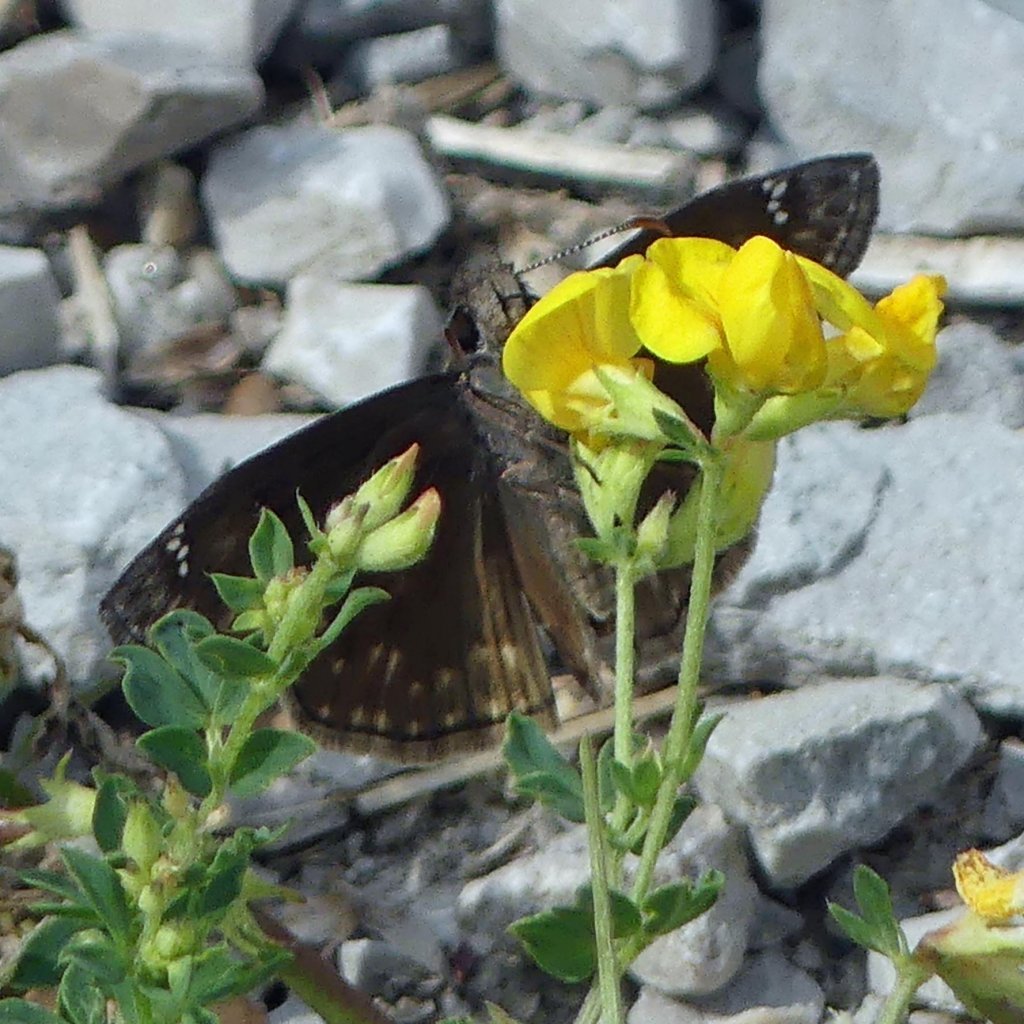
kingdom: Animalia
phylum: Arthropoda
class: Insecta
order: Lepidoptera
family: Hesperiidae
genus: Gesta
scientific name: Gesta
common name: Wild Indigo Duskywing
